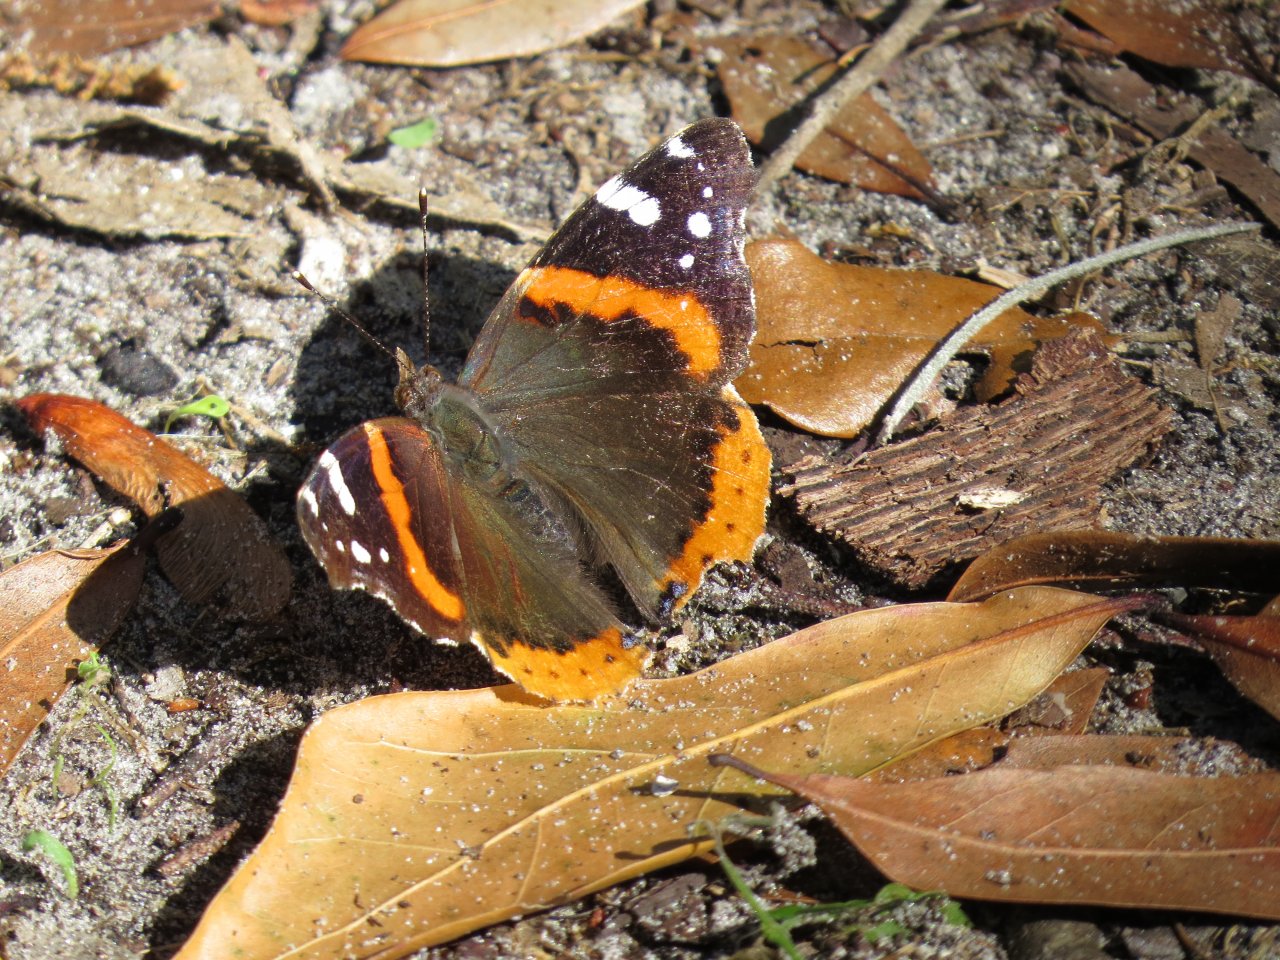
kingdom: Animalia
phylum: Arthropoda
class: Insecta
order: Lepidoptera
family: Nymphalidae
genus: Vanessa
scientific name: Vanessa atalanta
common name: Red Admiral
